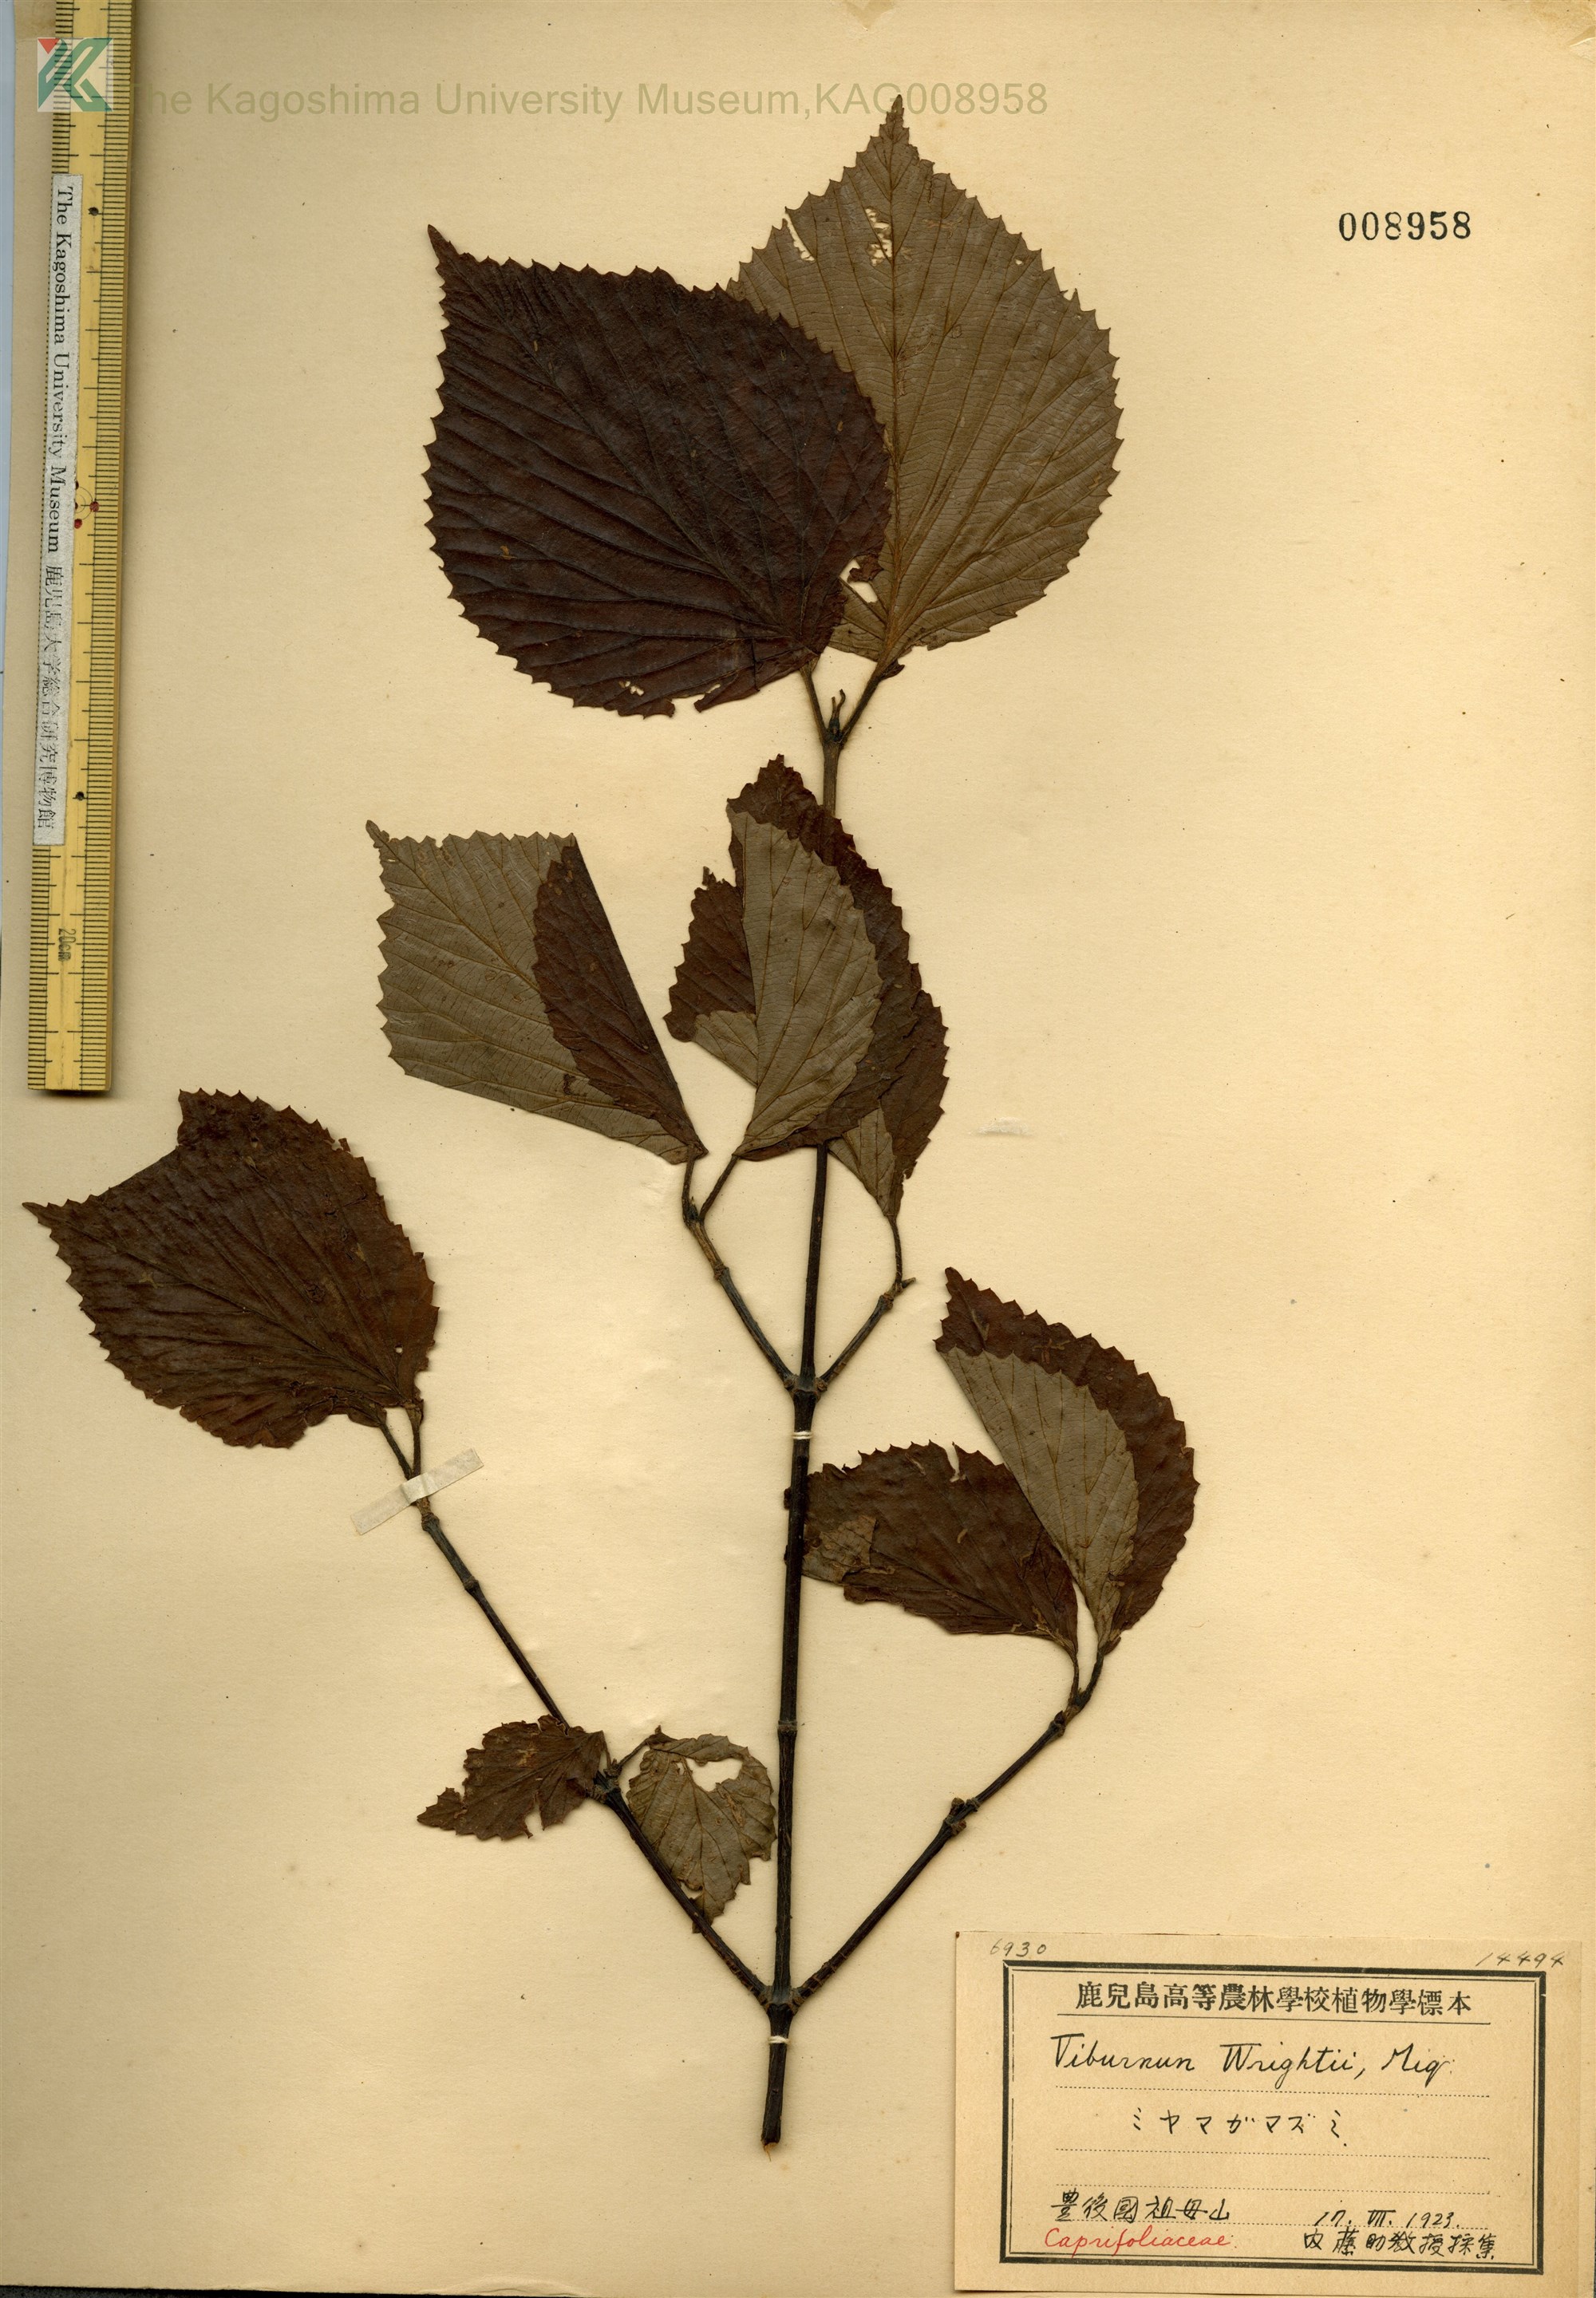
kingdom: Plantae
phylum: Tracheophyta
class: Magnoliopsida
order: Dipsacales
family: Viburnaceae
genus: Viburnum
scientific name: Viburnum wrightii
